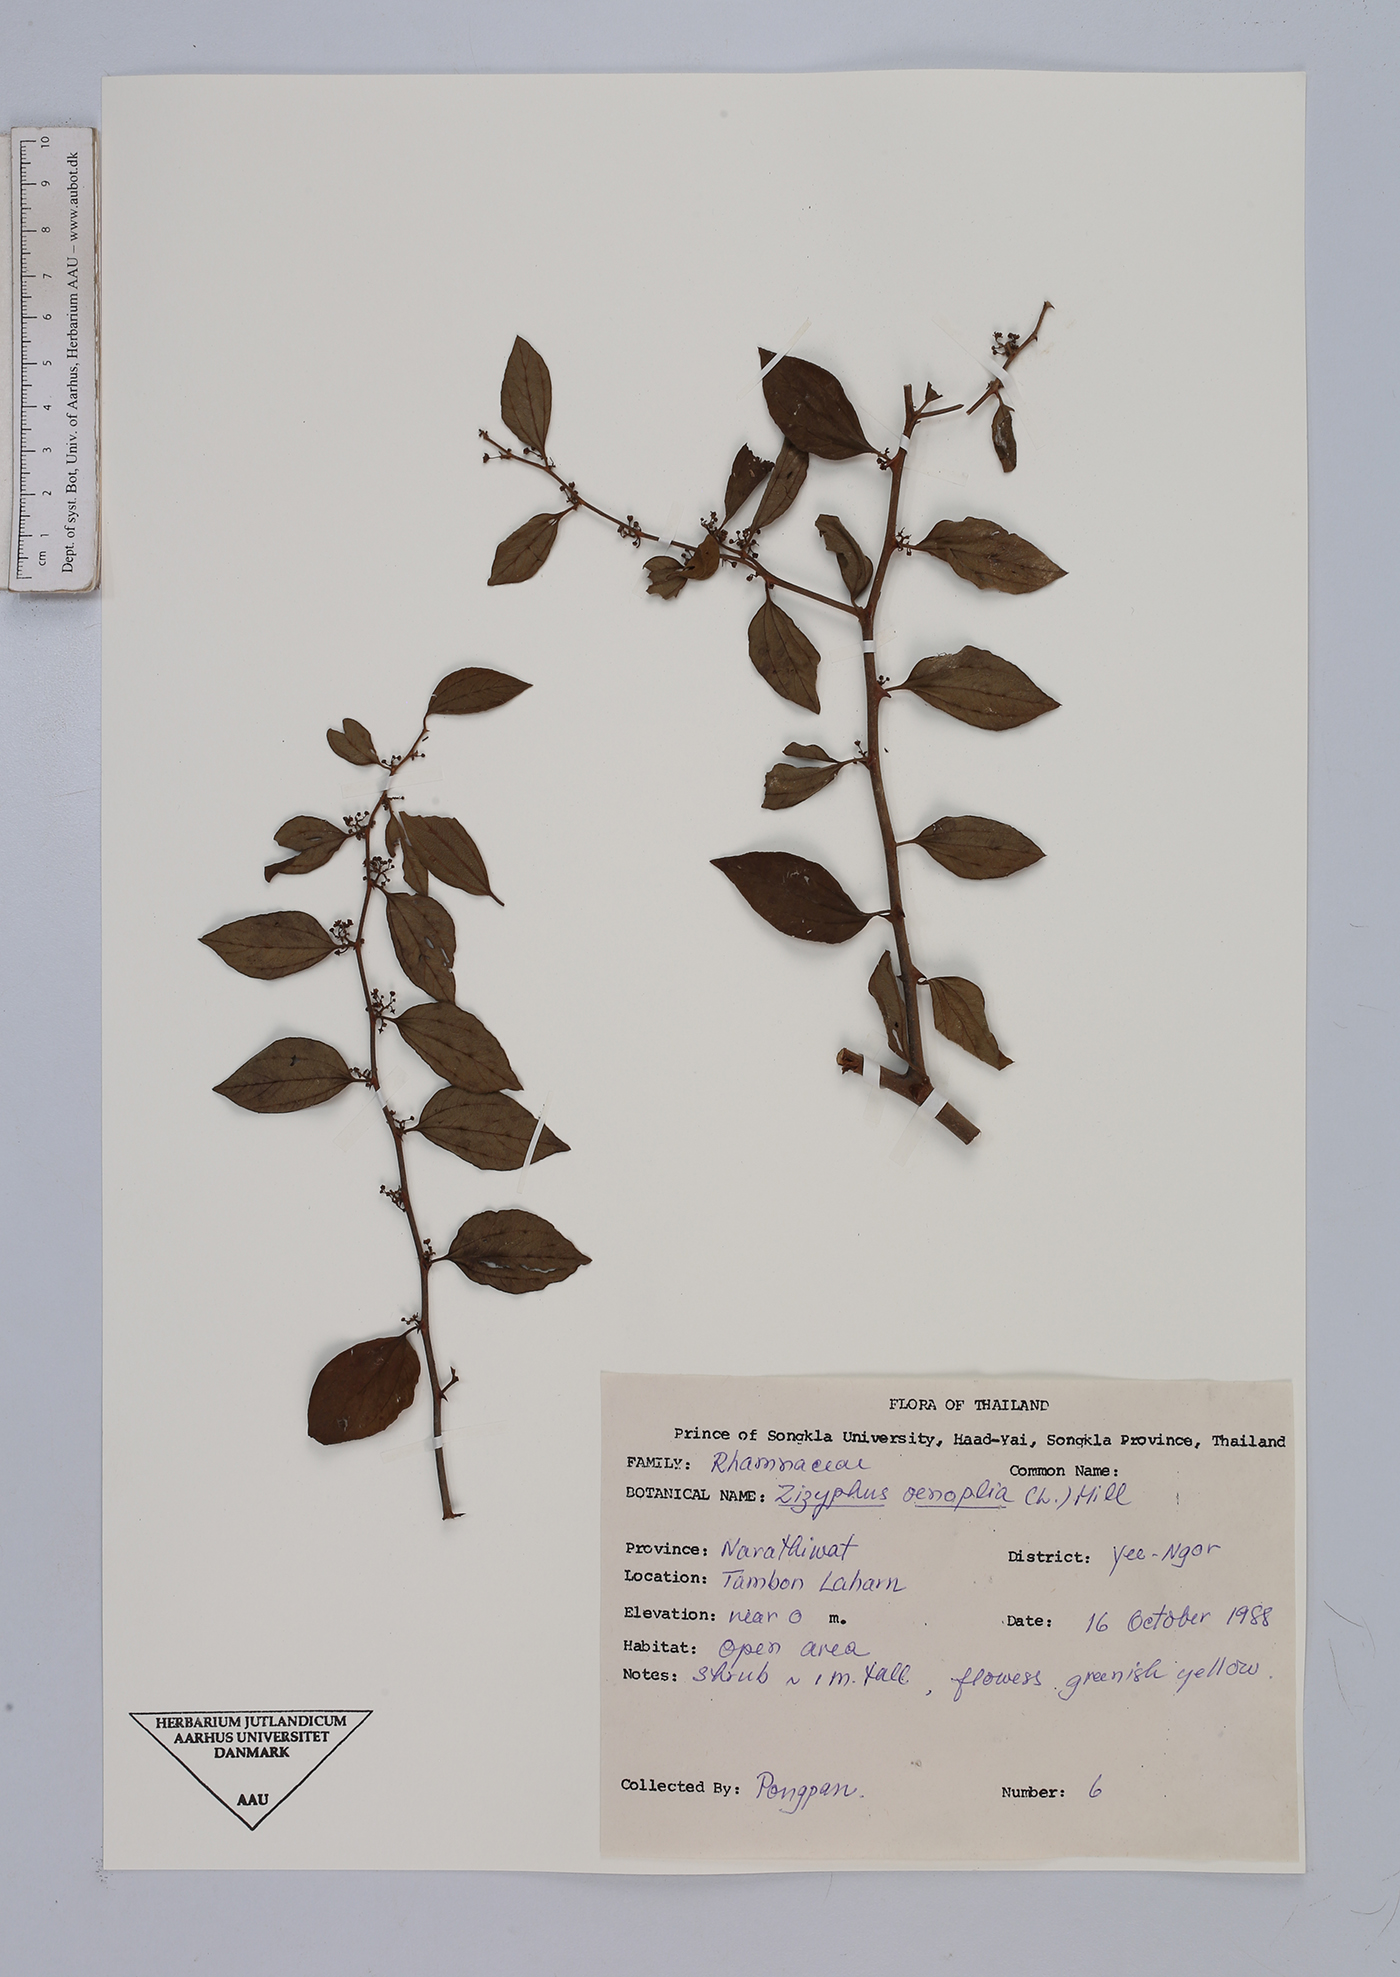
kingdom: Plantae
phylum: Tracheophyta
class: Magnoliopsida
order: Rosales
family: Rhamnaceae
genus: Ziziphus
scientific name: Ziziphus oenopolia
